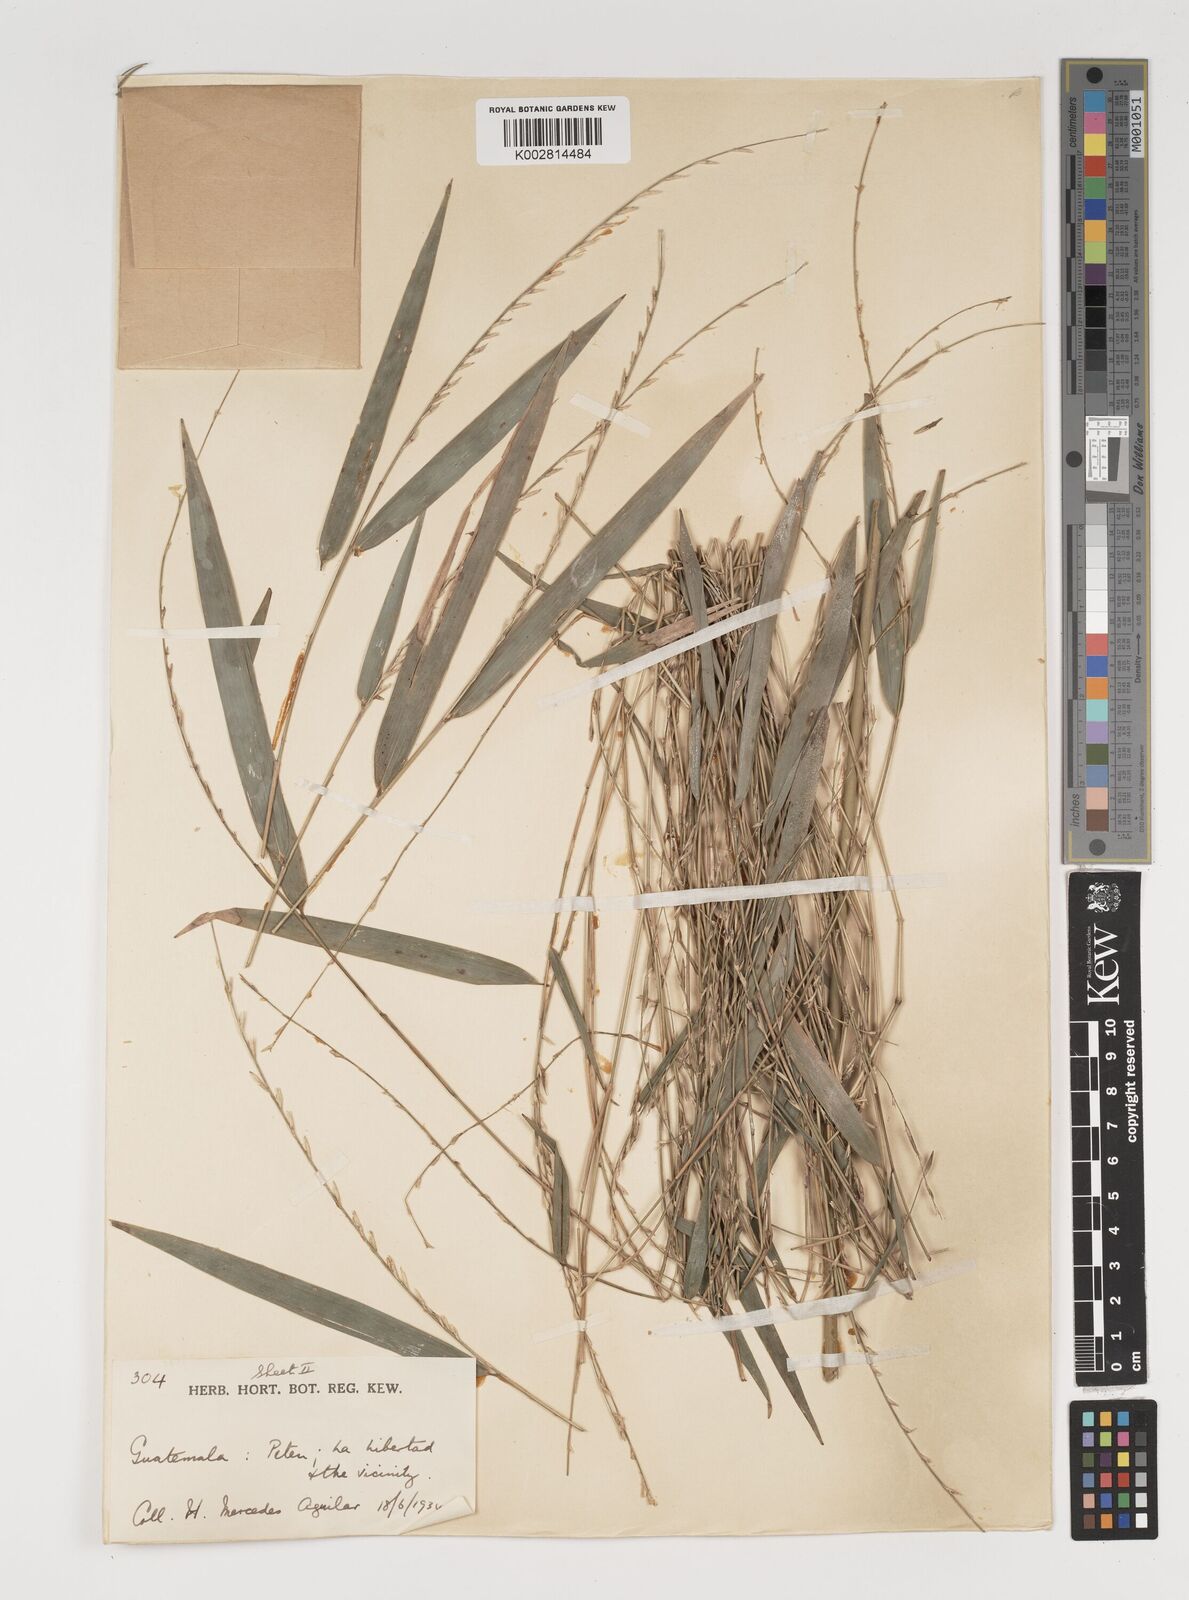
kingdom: Plantae
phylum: Tracheophyta
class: Liliopsida
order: Poales
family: Poaceae
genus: Rhipidocladum
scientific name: Rhipidocladum pittieri
